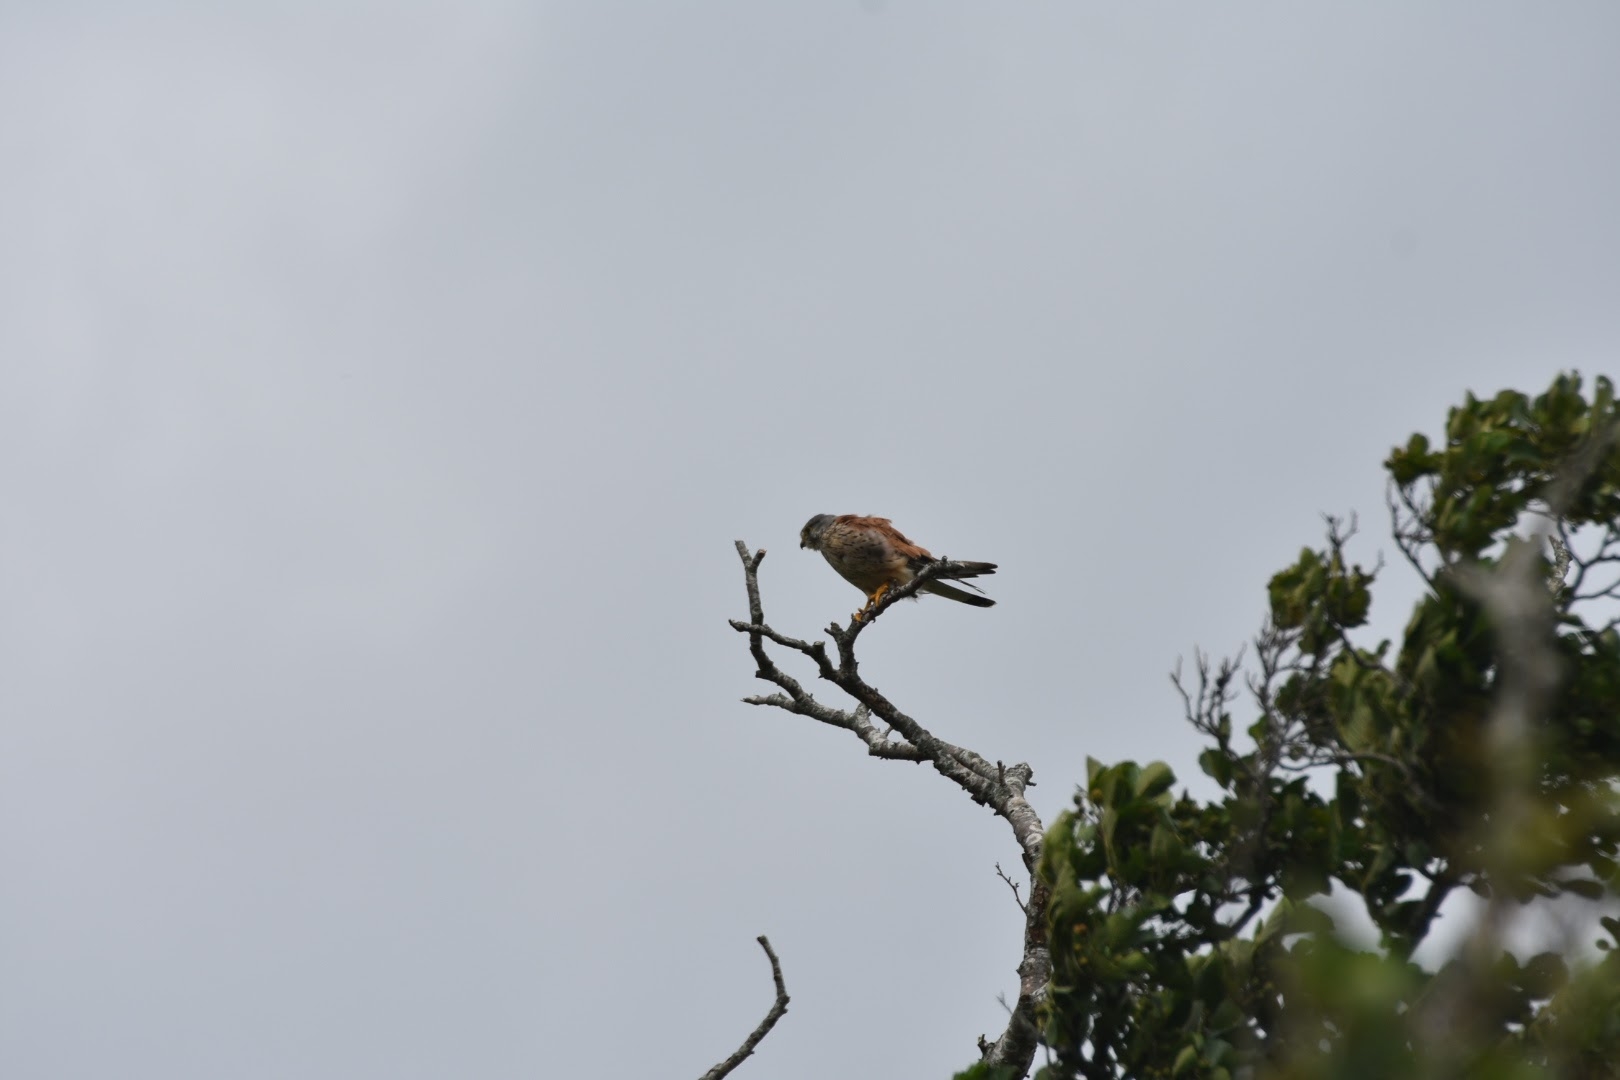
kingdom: Animalia
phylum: Chordata
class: Aves
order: Falconiformes
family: Falconidae
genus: Falco
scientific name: Falco tinnunculus
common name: Tårnfalk
